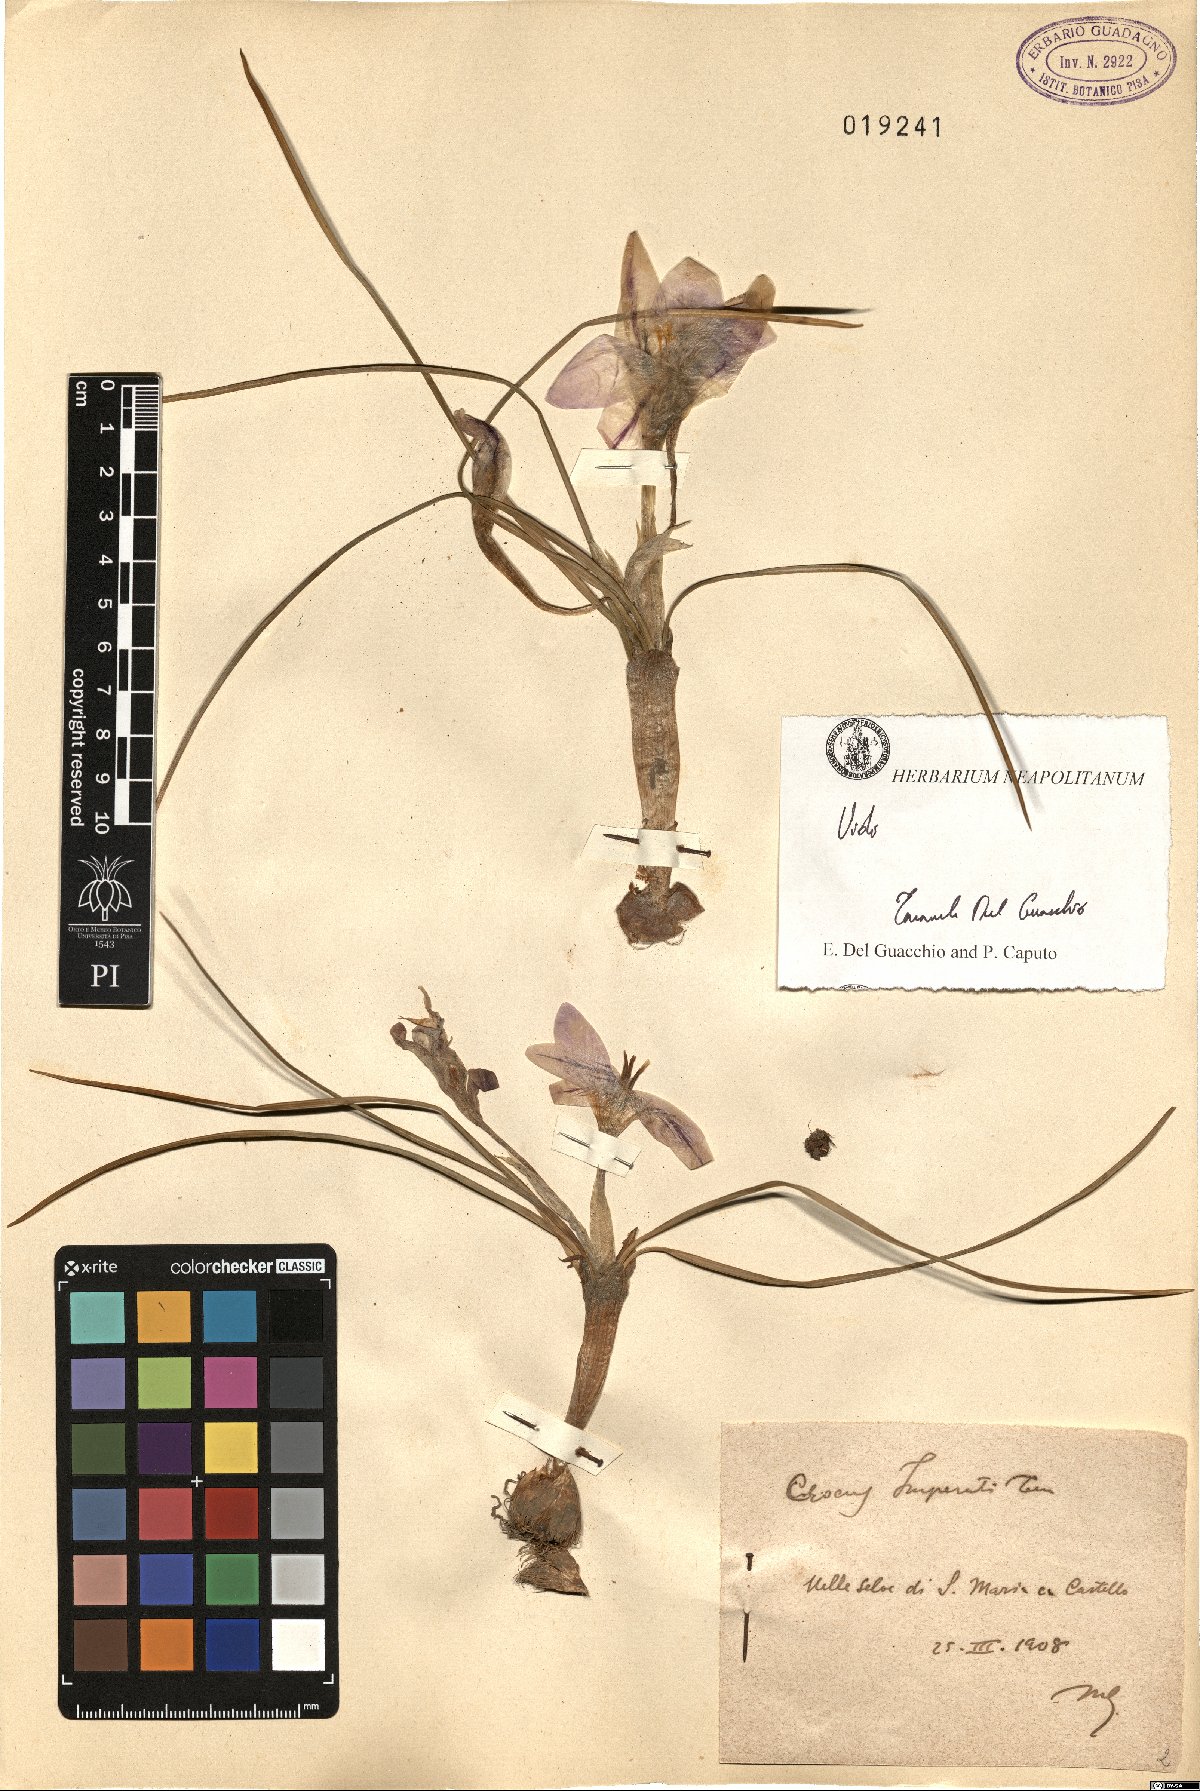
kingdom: Plantae
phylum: Tracheophyta
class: Liliopsida
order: Asparagales
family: Iridaceae
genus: Crocus
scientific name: Crocus imperati
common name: Early crocus
